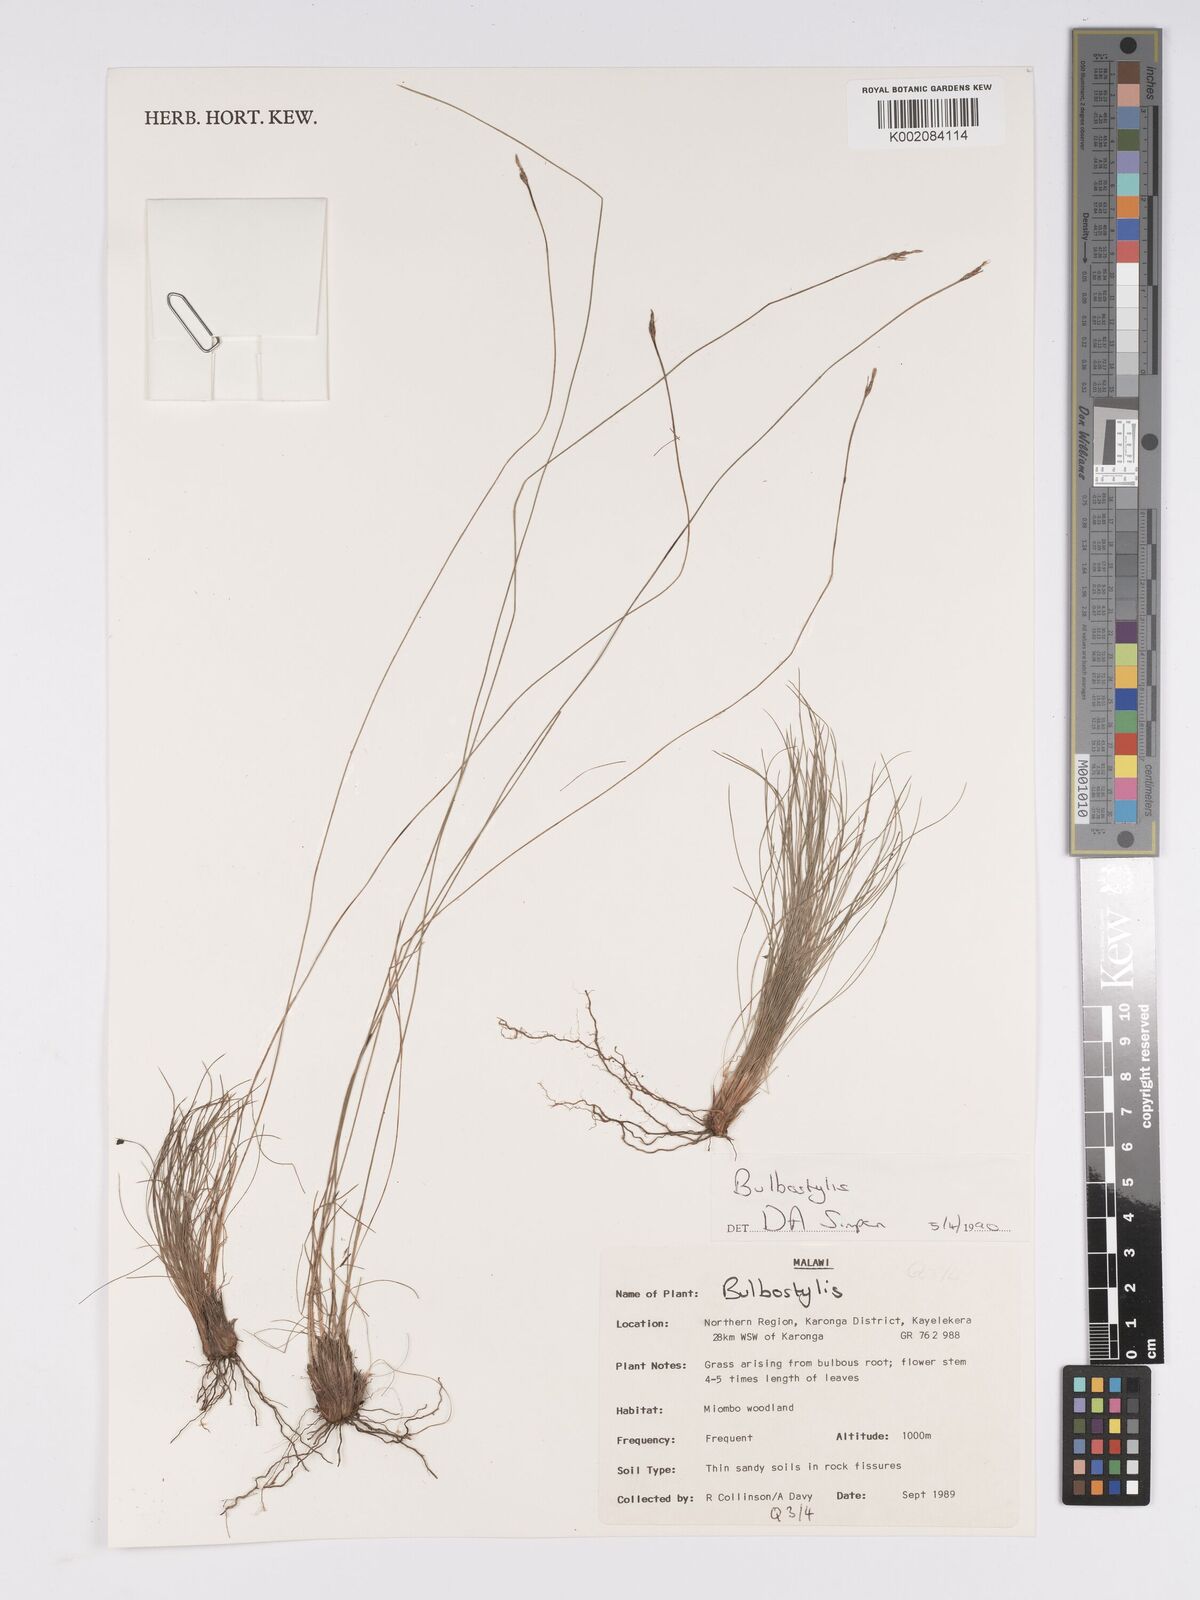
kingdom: Plantae
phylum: Tracheophyta
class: Liliopsida
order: Poales
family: Cyperaceae
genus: Bulbostylis
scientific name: Bulbostylis
